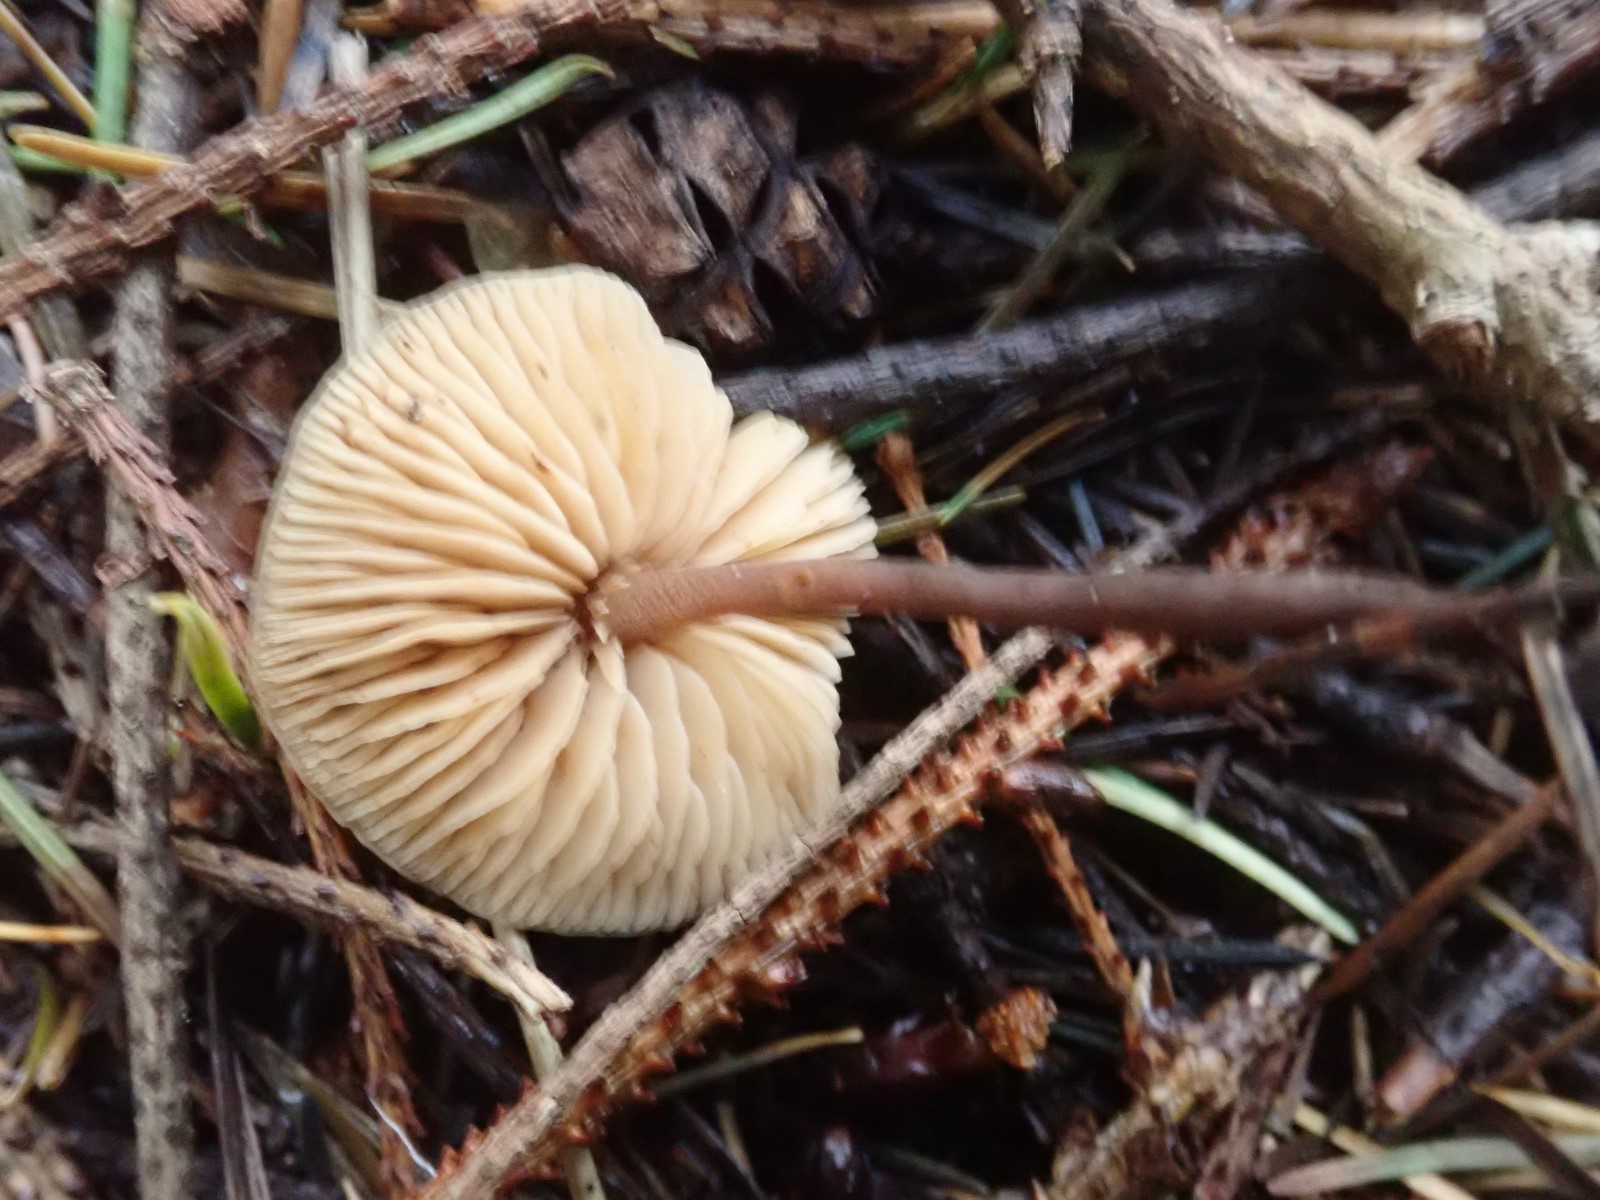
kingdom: Fungi
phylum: Basidiomycota
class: Agaricomycetes
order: Agaricales
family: Macrocystidiaceae
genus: Macrocystidia
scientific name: Macrocystidia cucumis
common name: agurkehat
